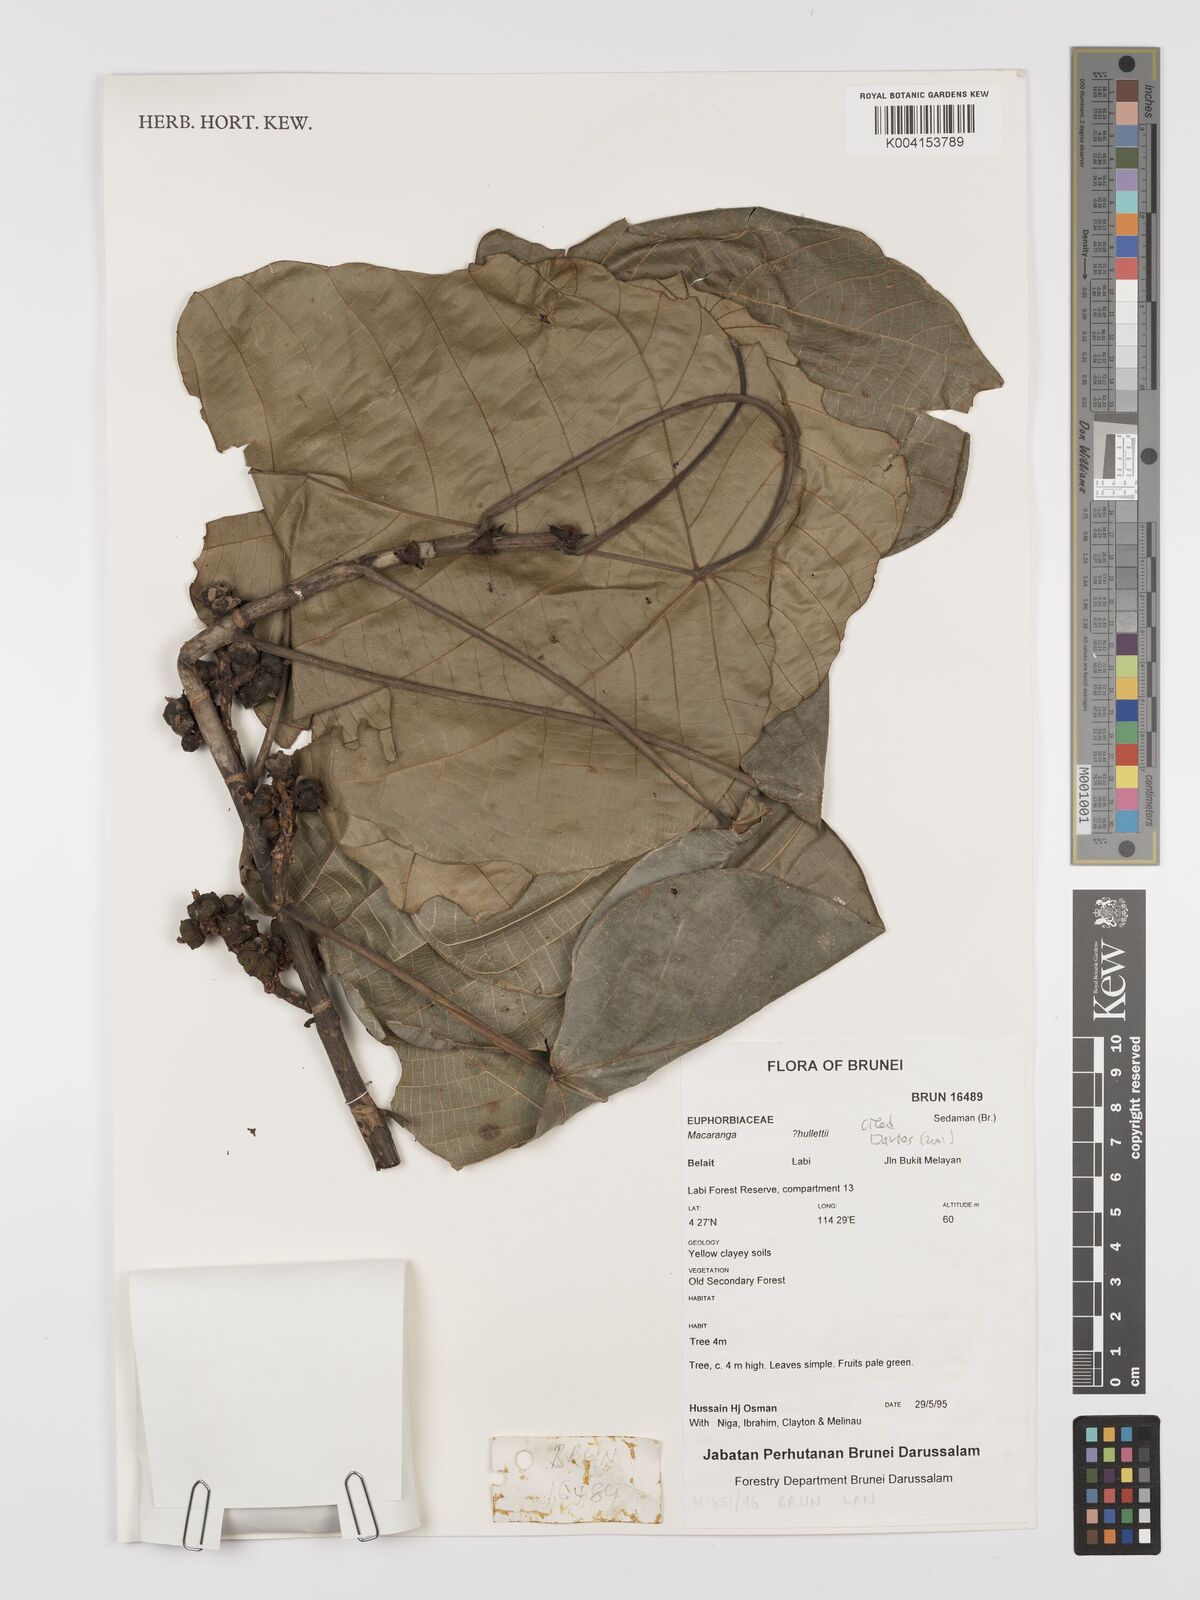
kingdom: Plantae
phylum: Tracheophyta
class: Magnoliopsida
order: Malpighiales
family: Euphorbiaceae
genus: Macaranga
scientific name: Macaranga hullettii
